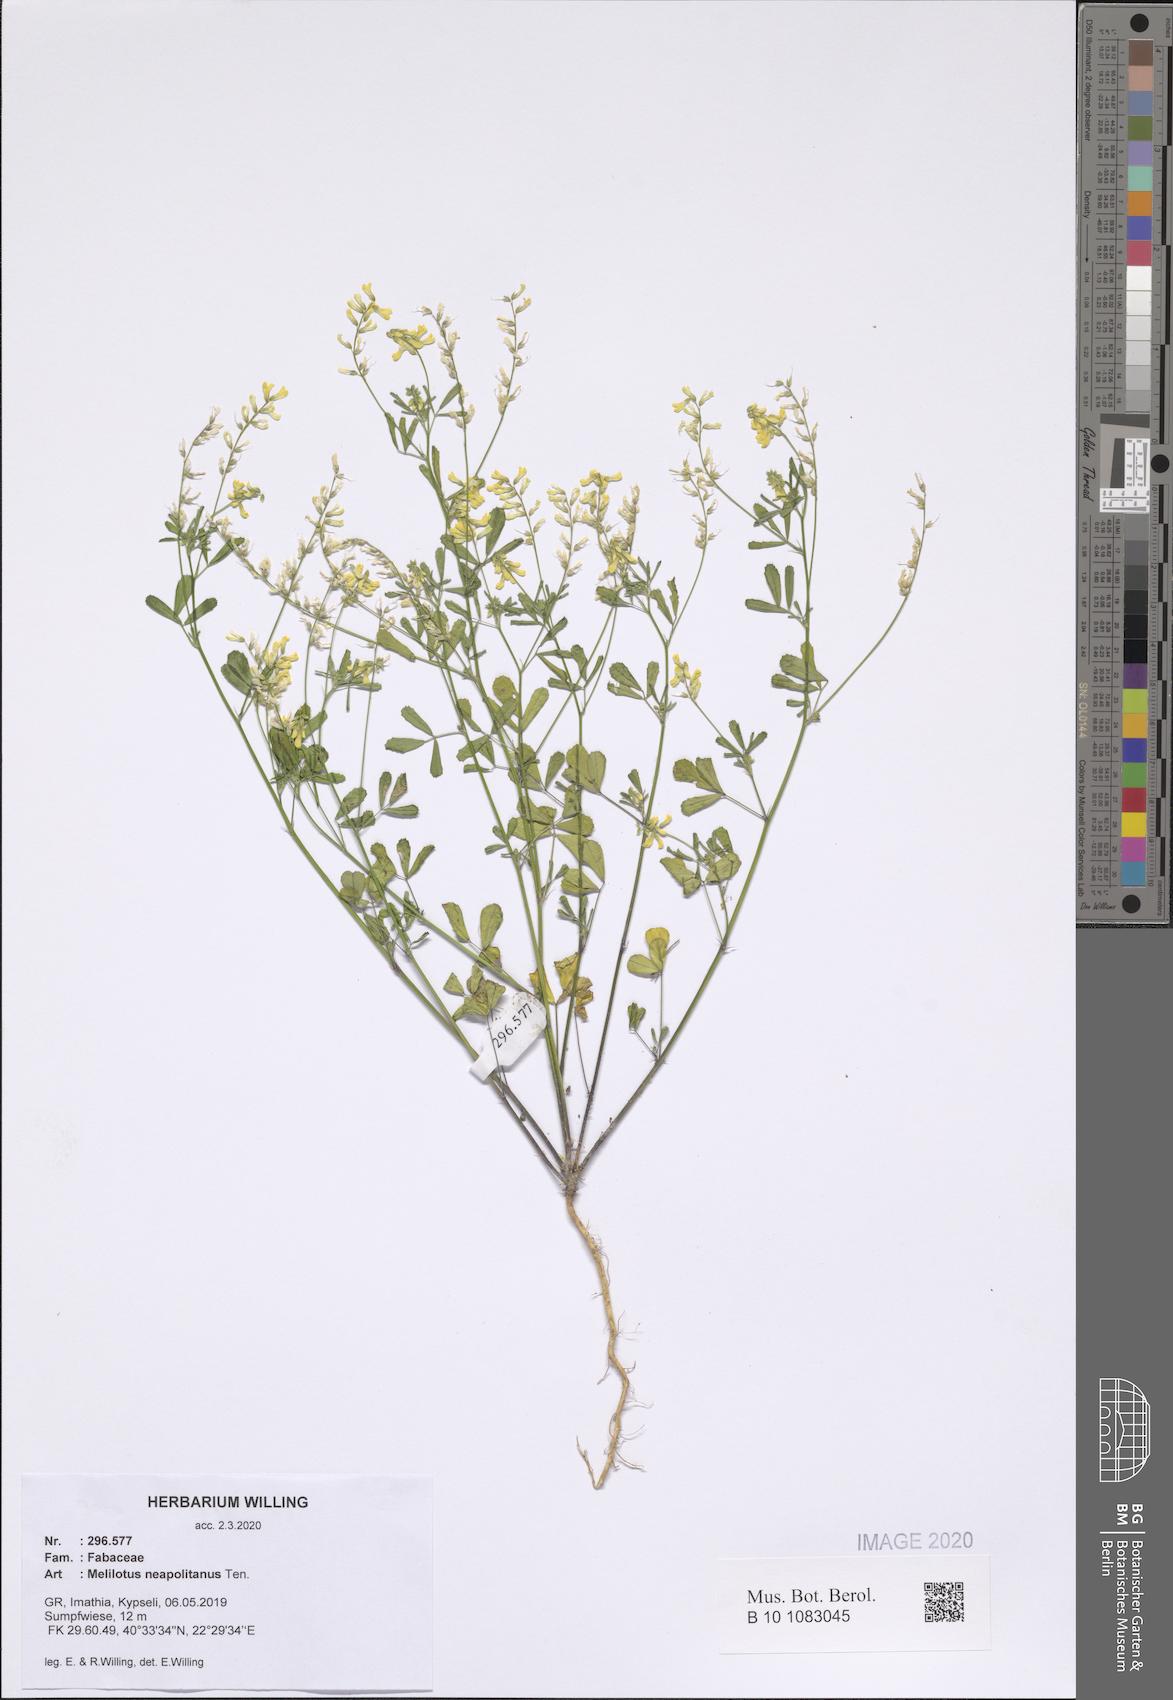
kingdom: Plantae
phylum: Tracheophyta
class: Magnoliopsida
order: Fabales
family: Fabaceae
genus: Melilotus
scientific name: Melilotus neapolitanus
